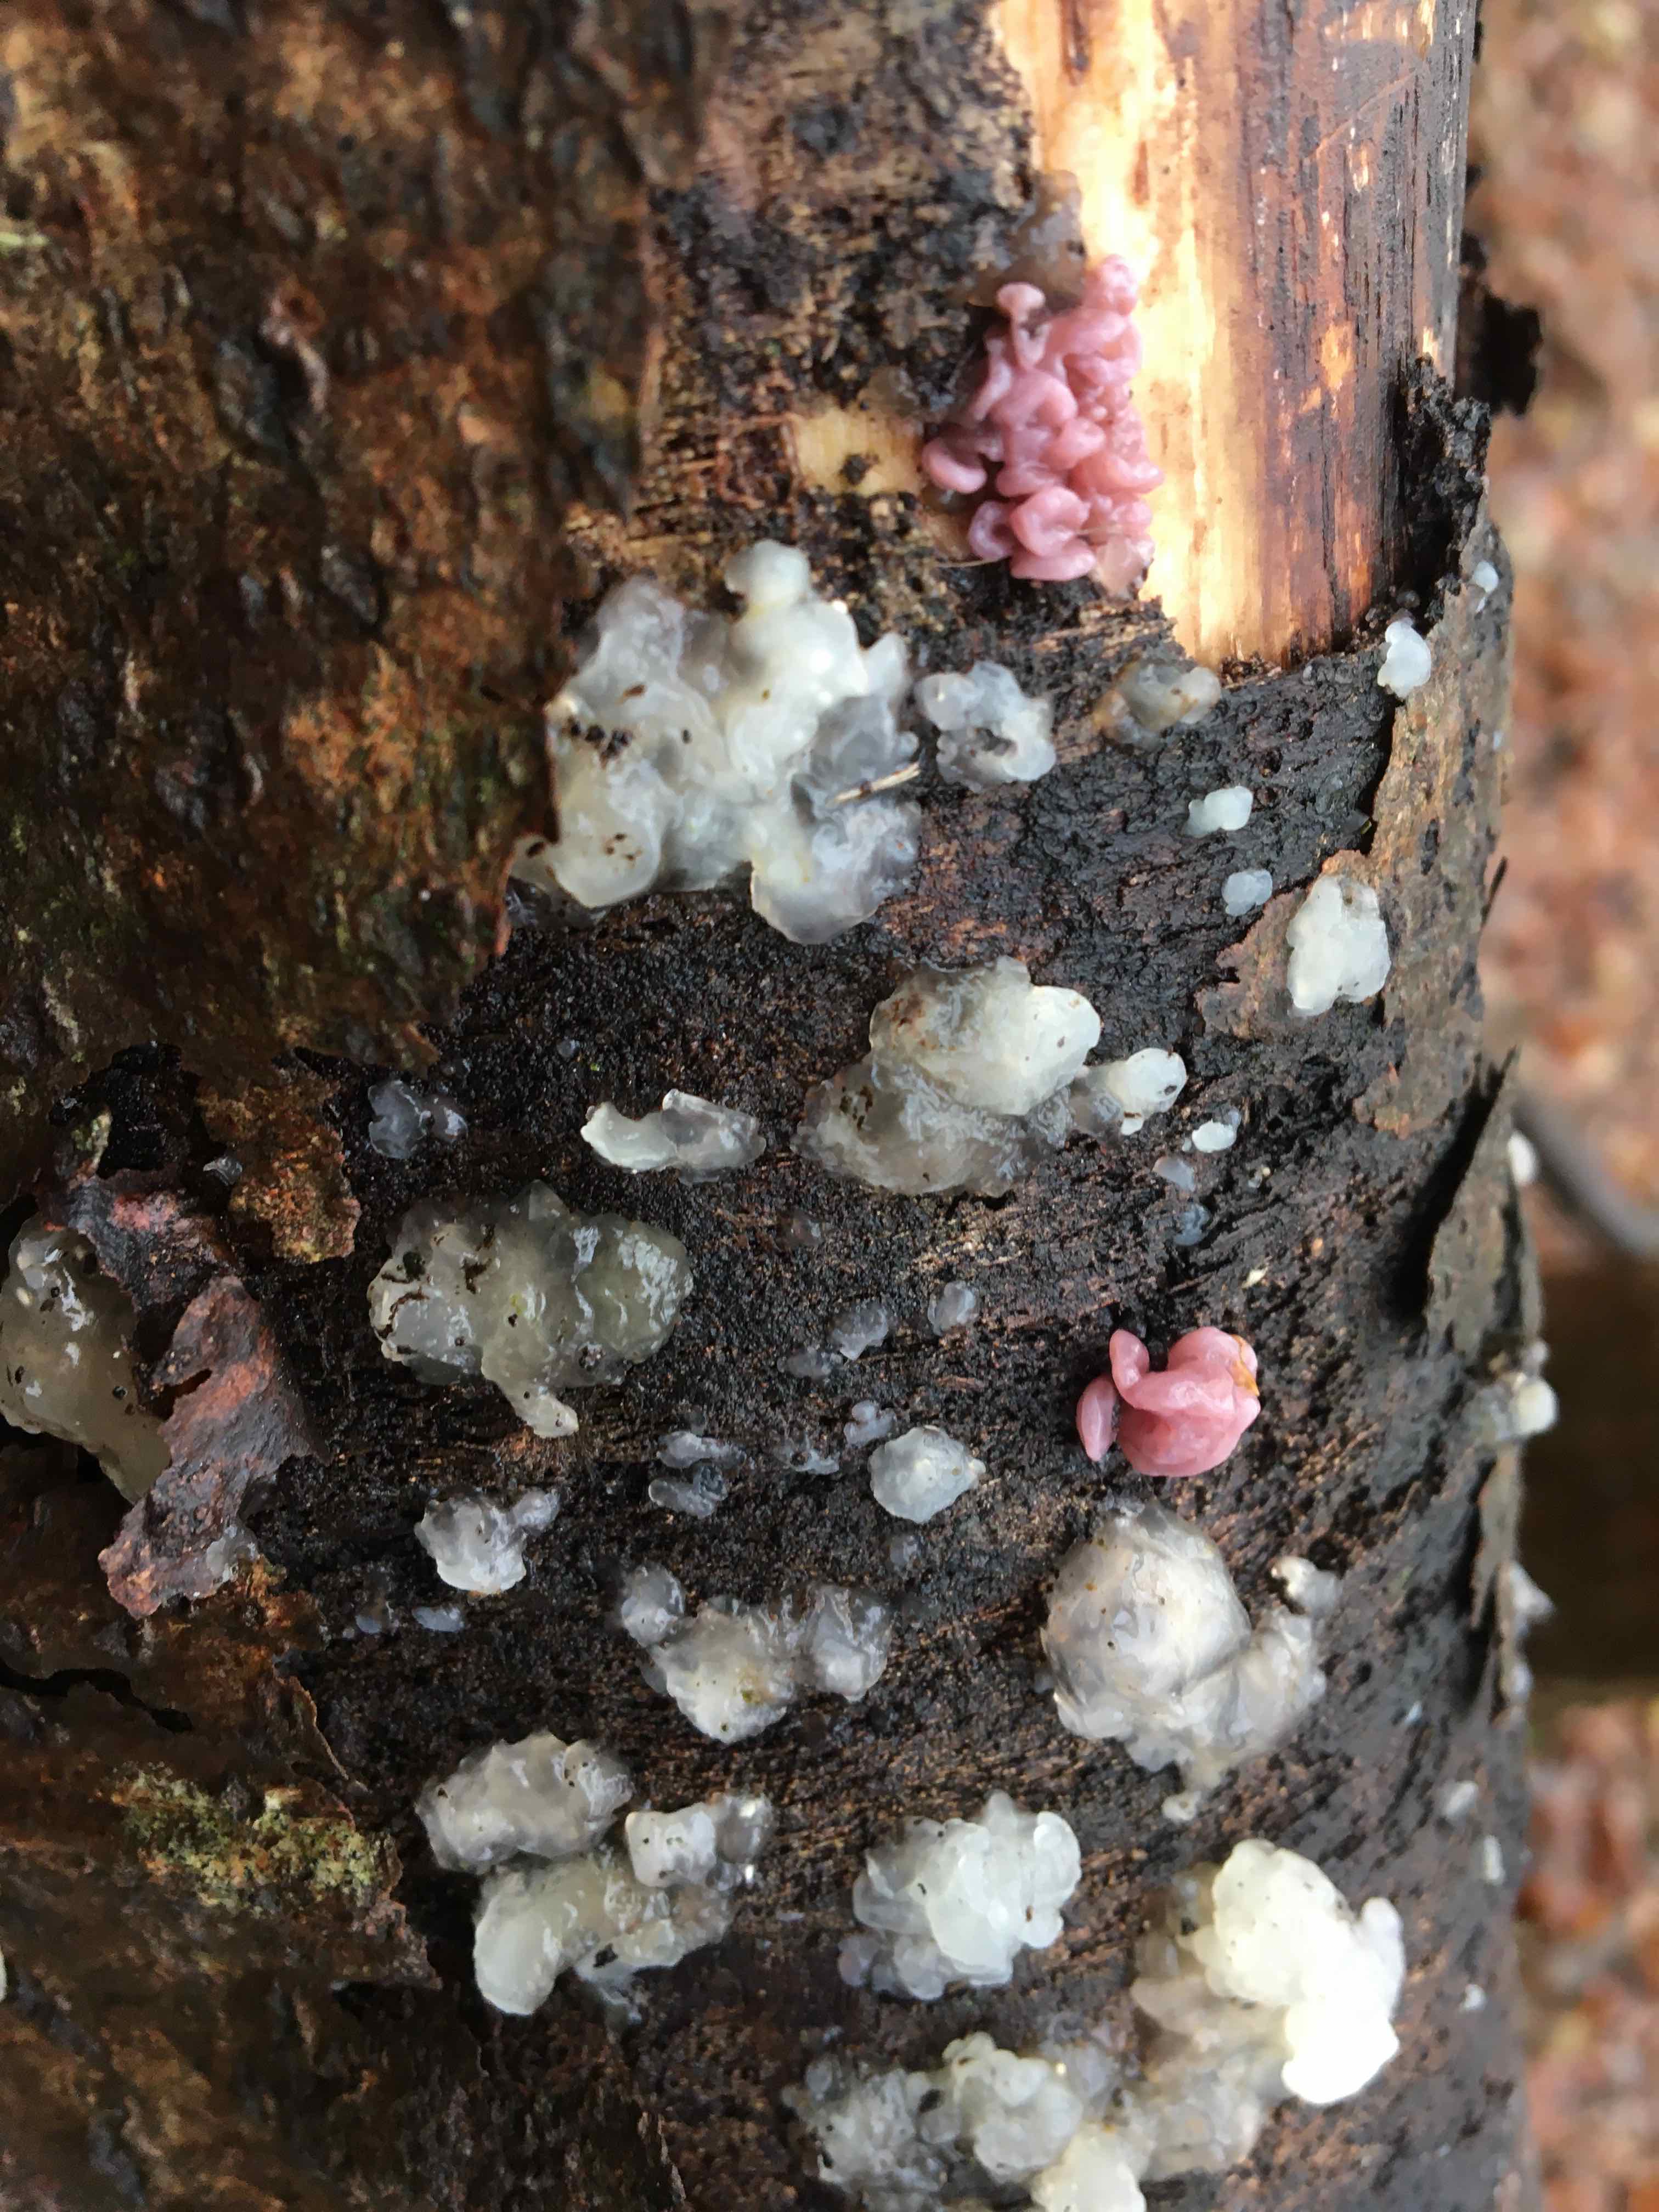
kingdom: Fungi
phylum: Basidiomycota
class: Agaricomycetes
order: Auriculariales
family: Hyaloriaceae
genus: Myxarium
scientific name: Myxarium nucleatum
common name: klar bævretop
